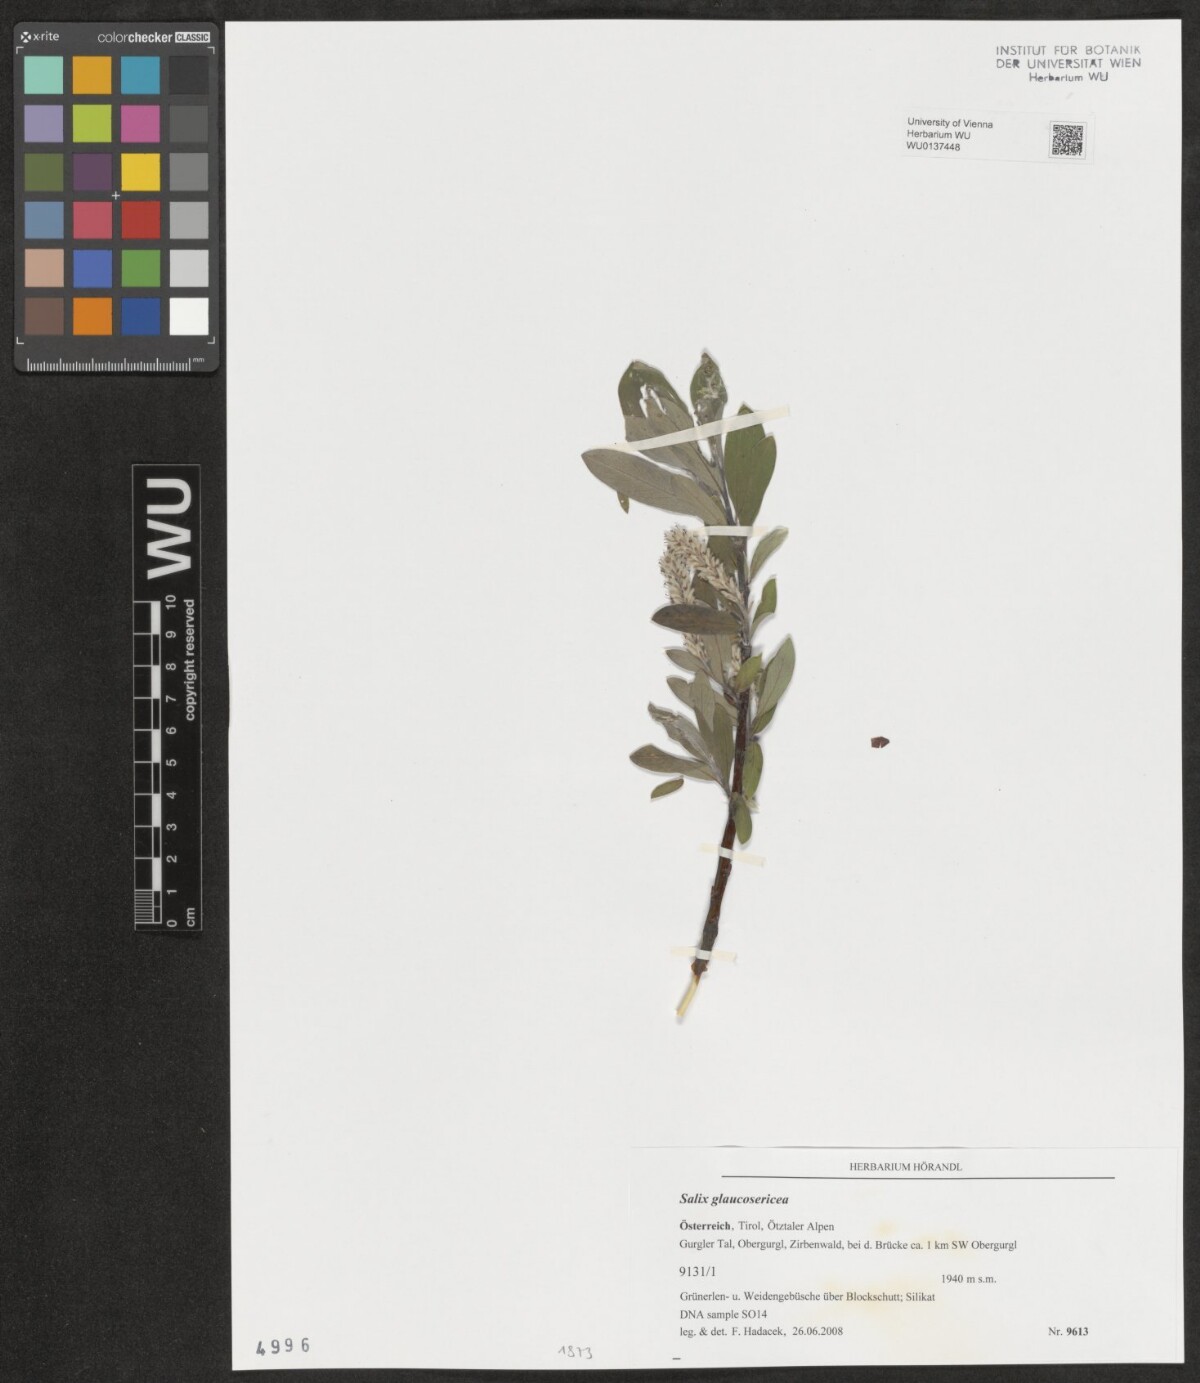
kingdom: Plantae
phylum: Tracheophyta
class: Magnoliopsida
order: Malpighiales
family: Salicaceae
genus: Salix
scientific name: Salix glaucosericea
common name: Alpine gray willow
